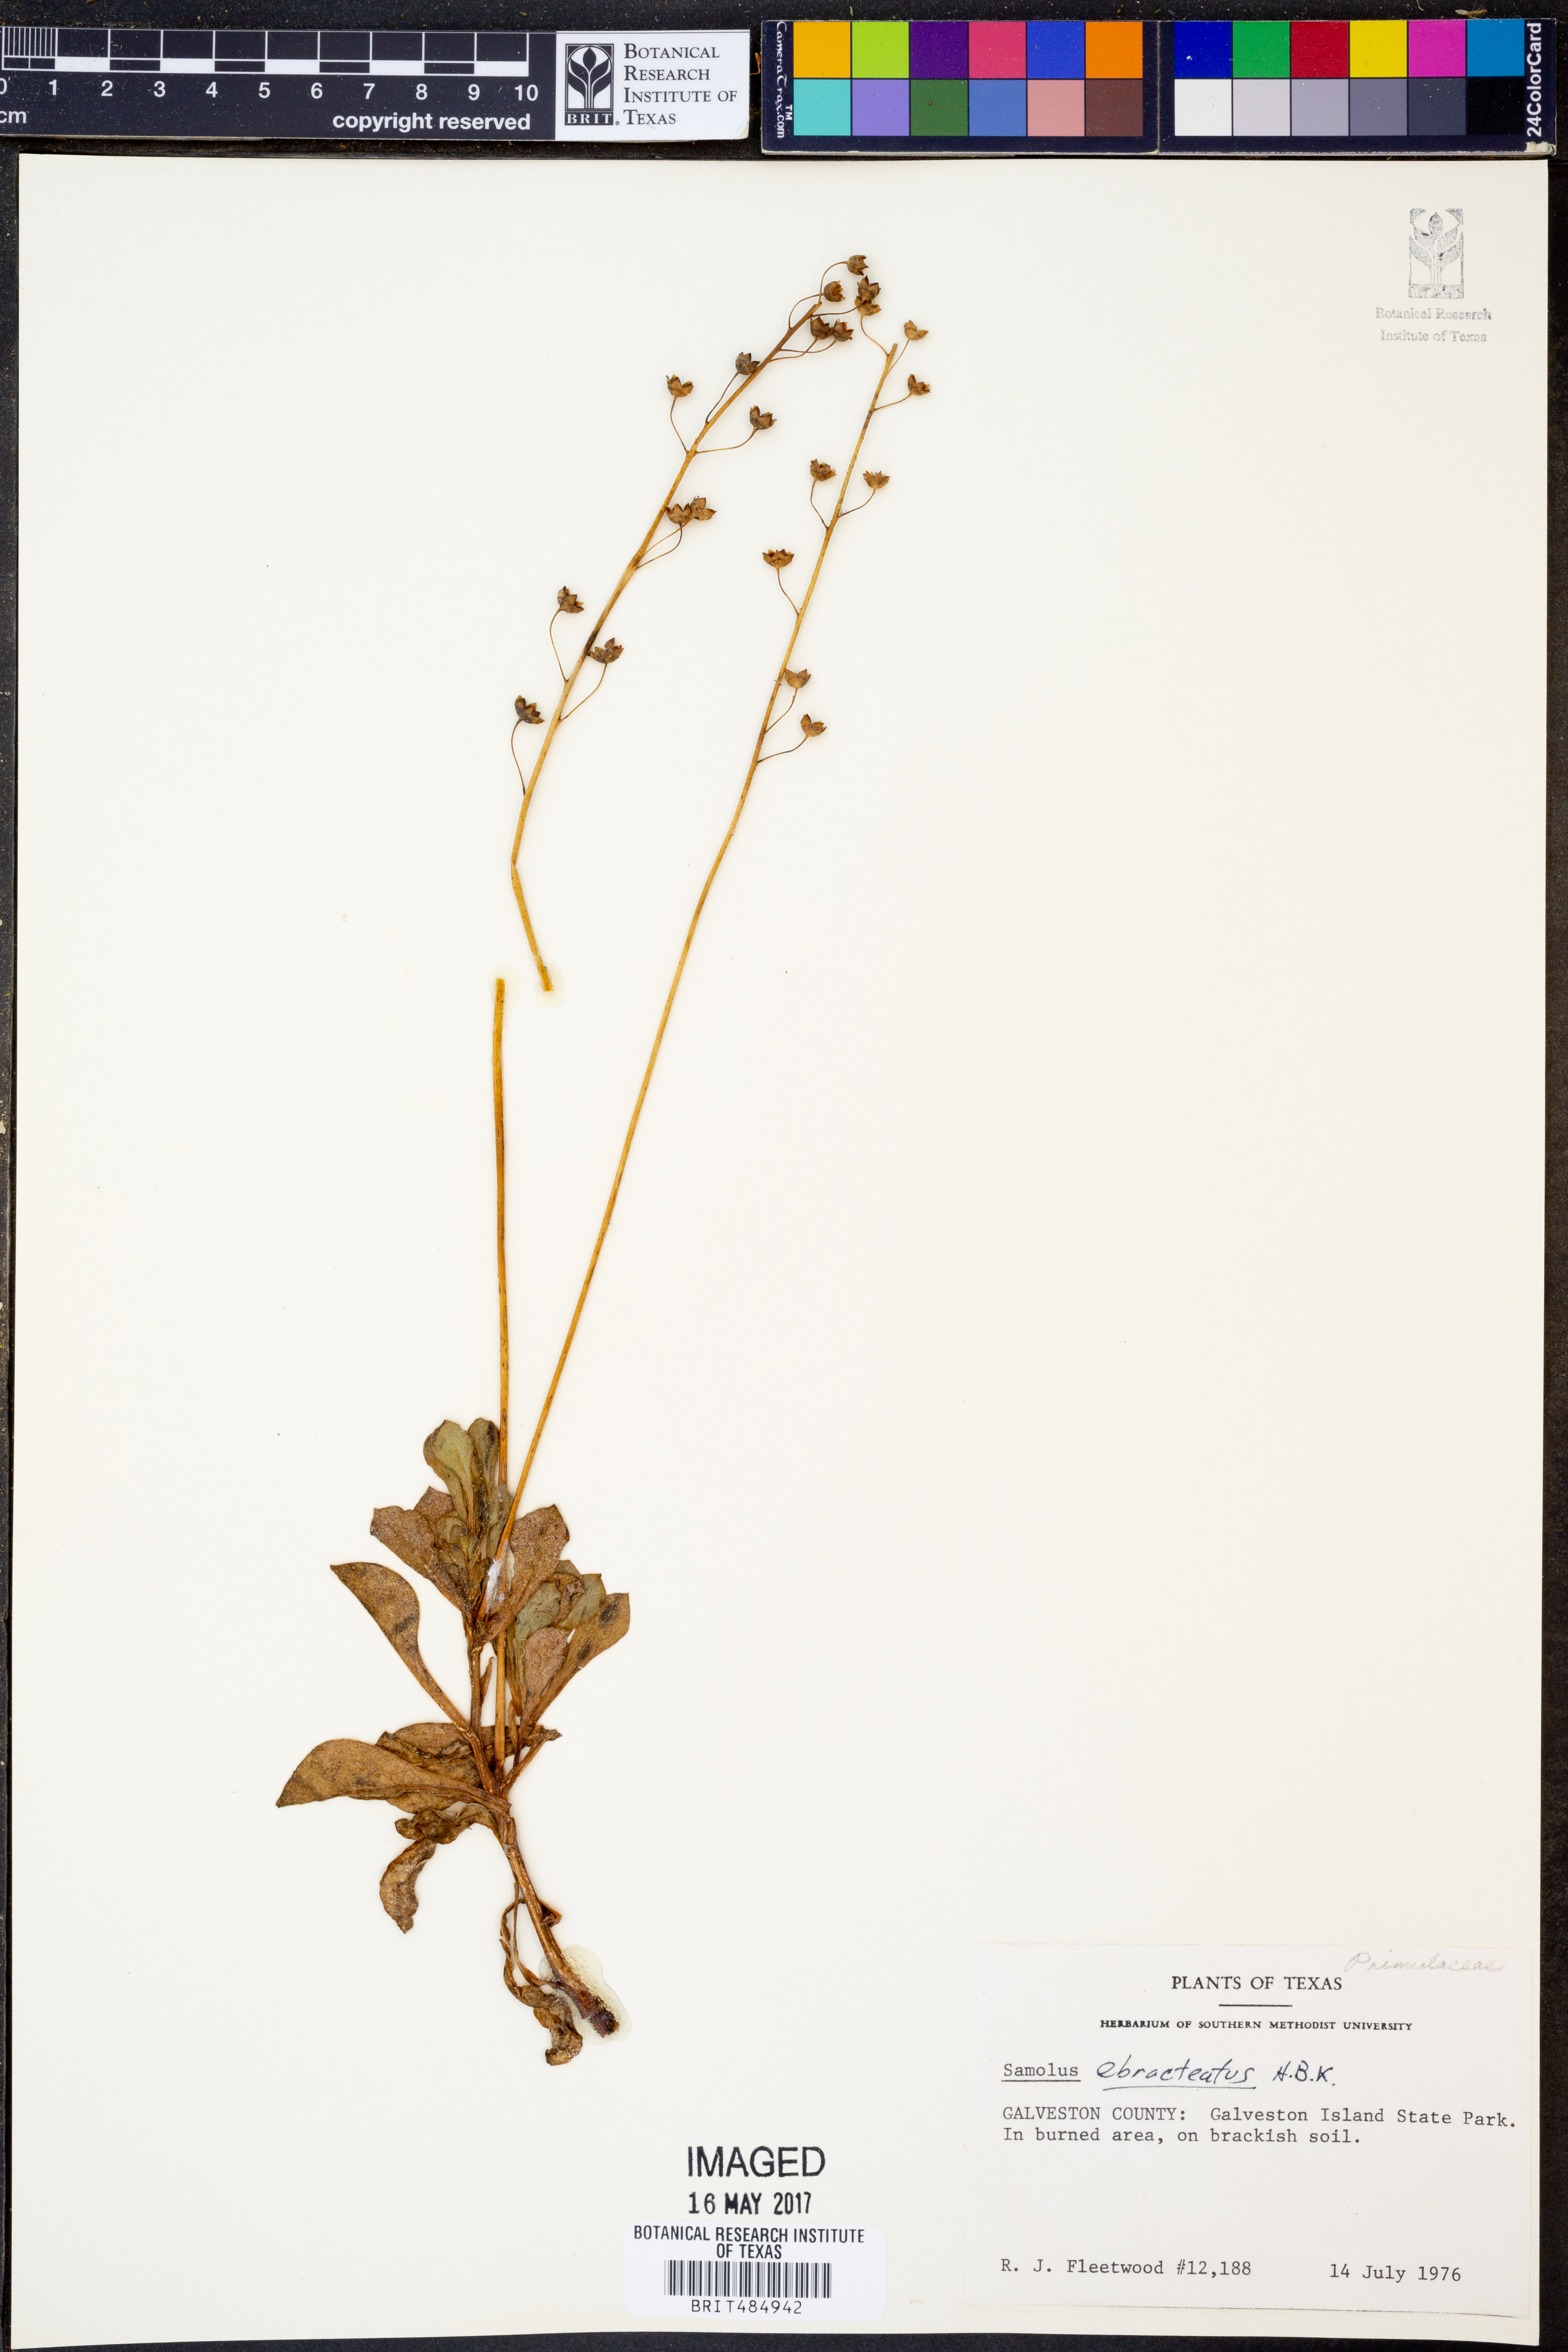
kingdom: Plantae
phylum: Tracheophyta
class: Magnoliopsida
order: Ericales
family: Primulaceae
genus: Samolus
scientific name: Samolus ebracteatus
